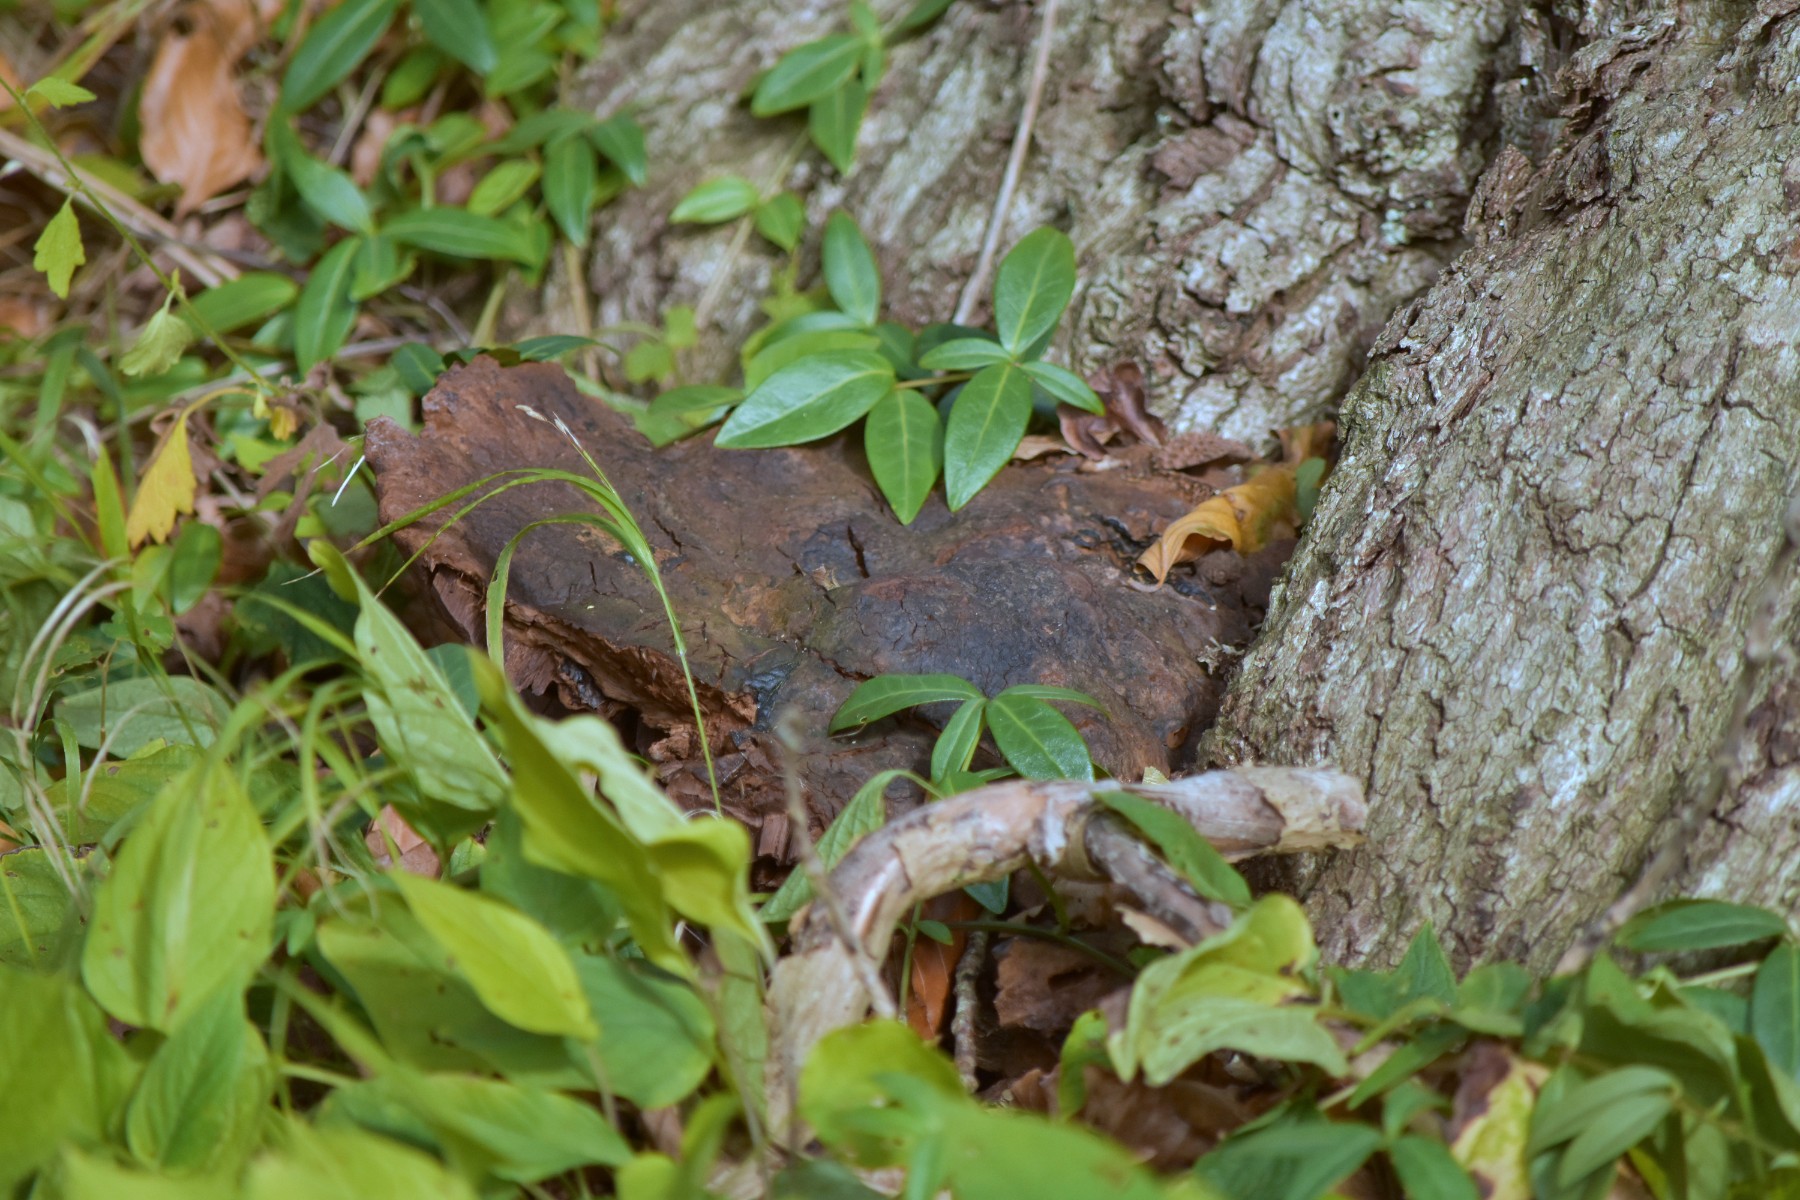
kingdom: Fungi
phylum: Basidiomycota
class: Agaricomycetes
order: Hymenochaetales
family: Hymenochaetaceae
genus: Pseudoinonotus
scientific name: Pseudoinonotus dryadeus
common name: ege-spejlporesvamp
